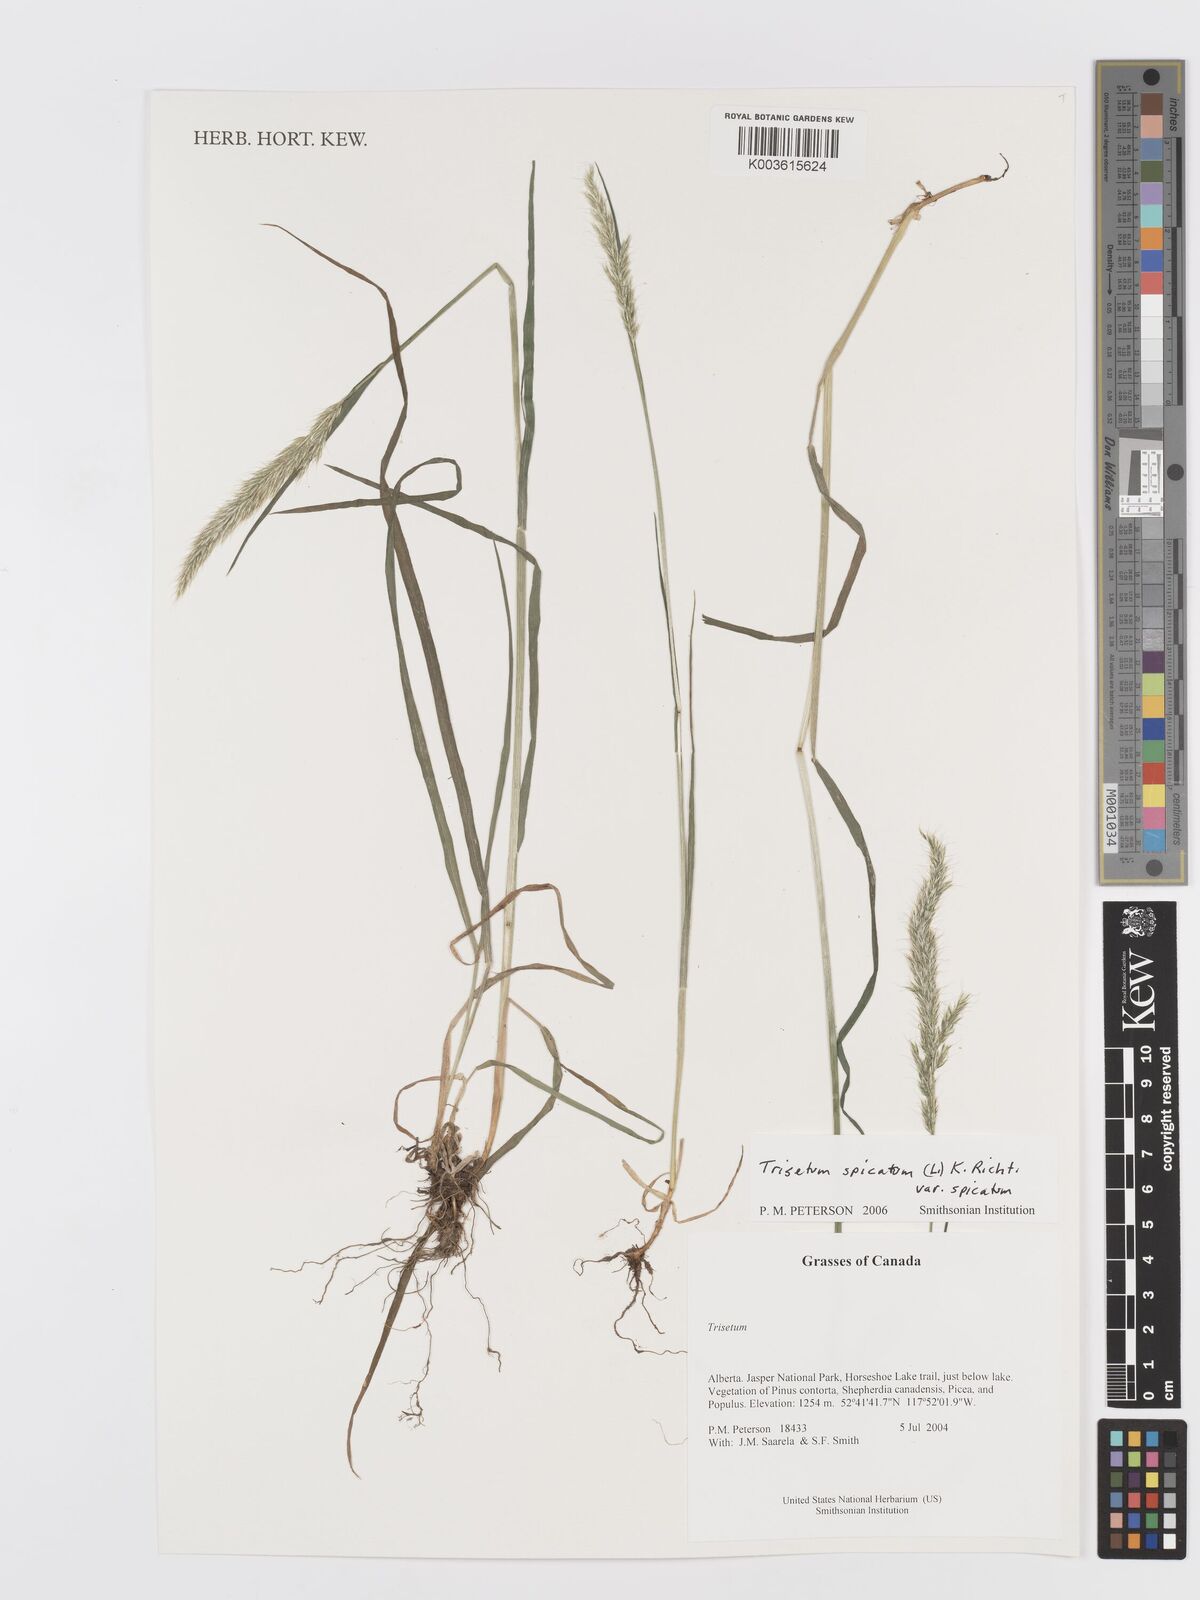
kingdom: Plantae
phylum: Tracheophyta
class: Liliopsida
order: Poales
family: Poaceae
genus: Koeleria
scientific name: Koeleria spicata
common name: Mountain trisetum
